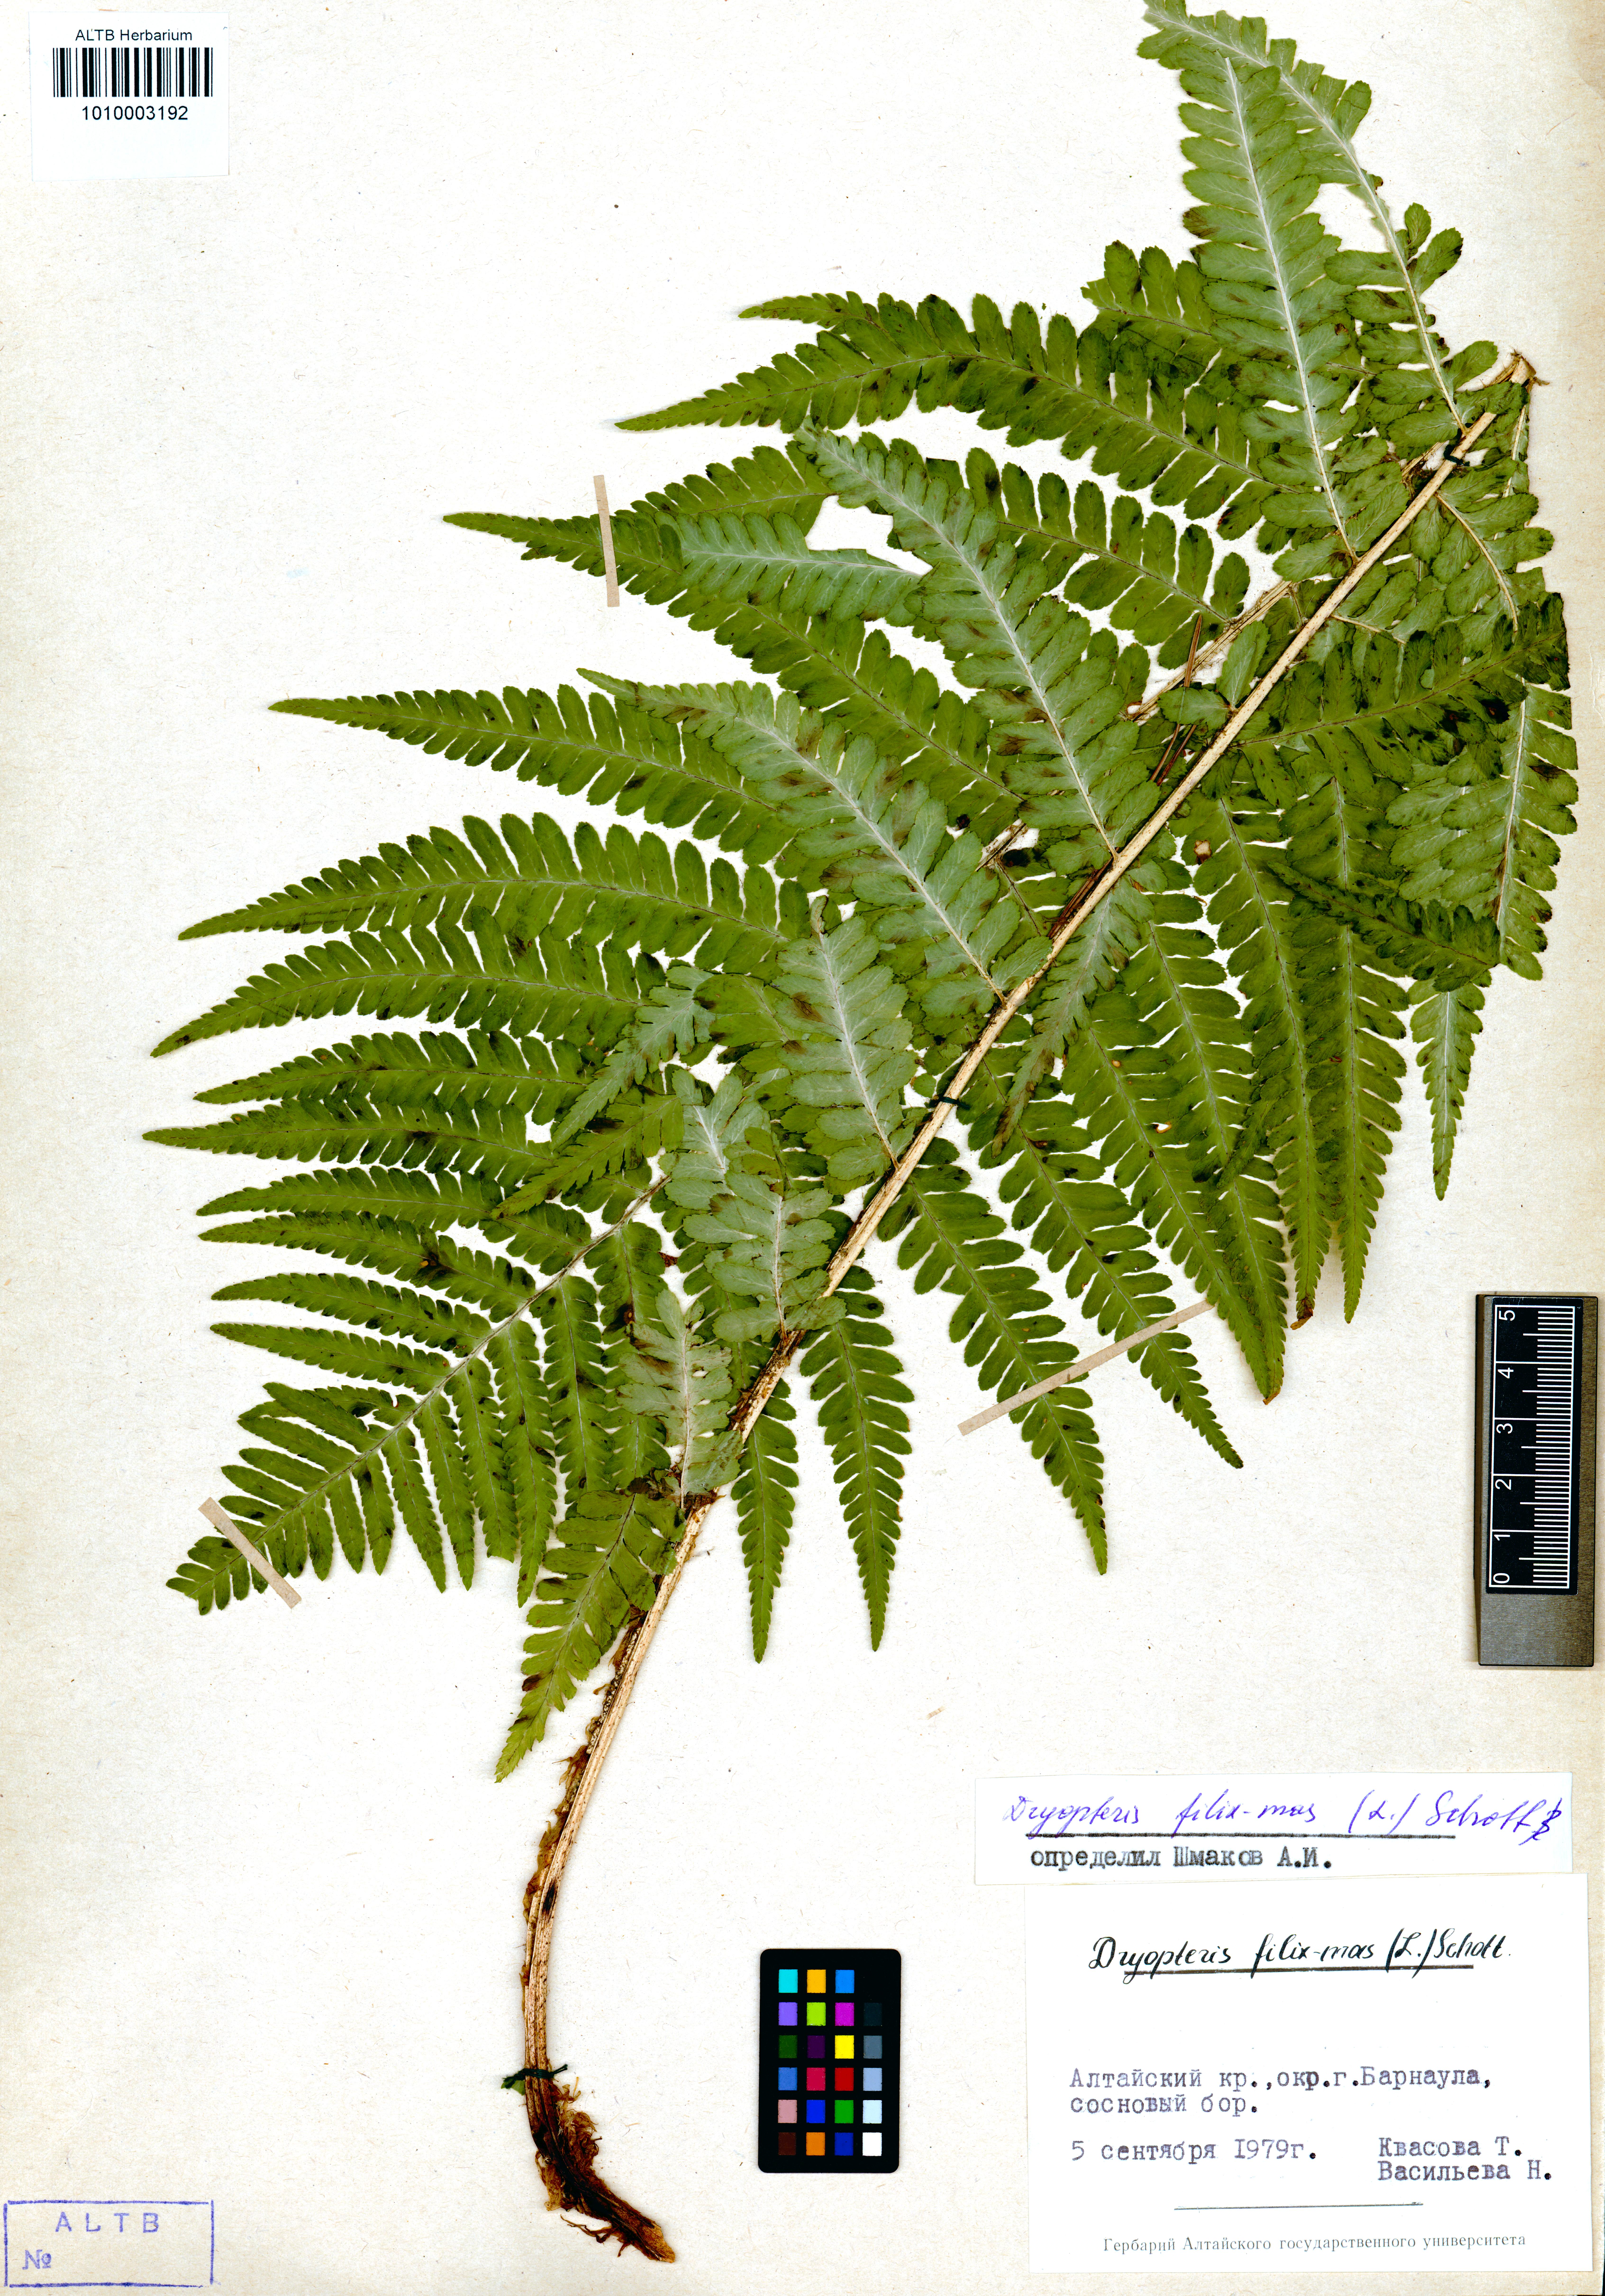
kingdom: Plantae
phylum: Tracheophyta
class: Polypodiopsida
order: Polypodiales
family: Dryopteridaceae
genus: Dryopteris
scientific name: Dryopteris filix-mas
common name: Male fern
